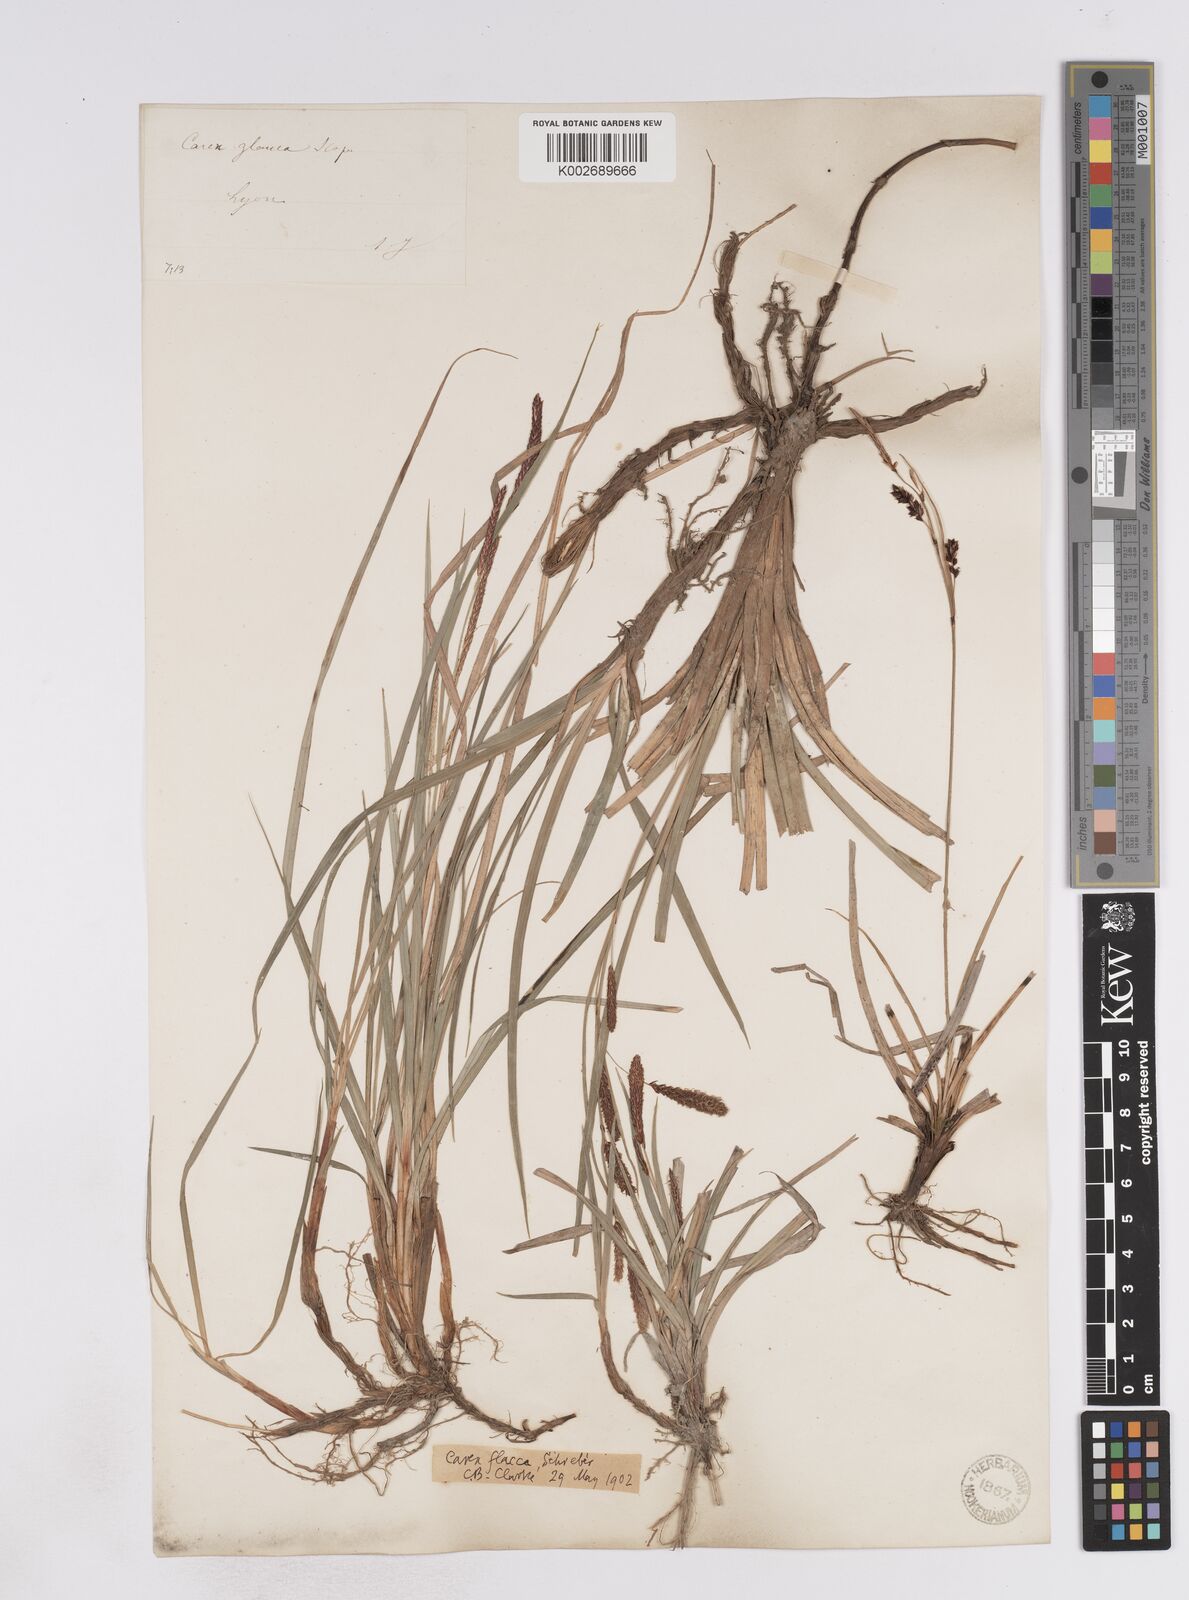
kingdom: Plantae
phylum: Tracheophyta
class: Liliopsida
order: Poales
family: Cyperaceae
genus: Carex
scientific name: Carex flacca
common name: Glaucous sedge
